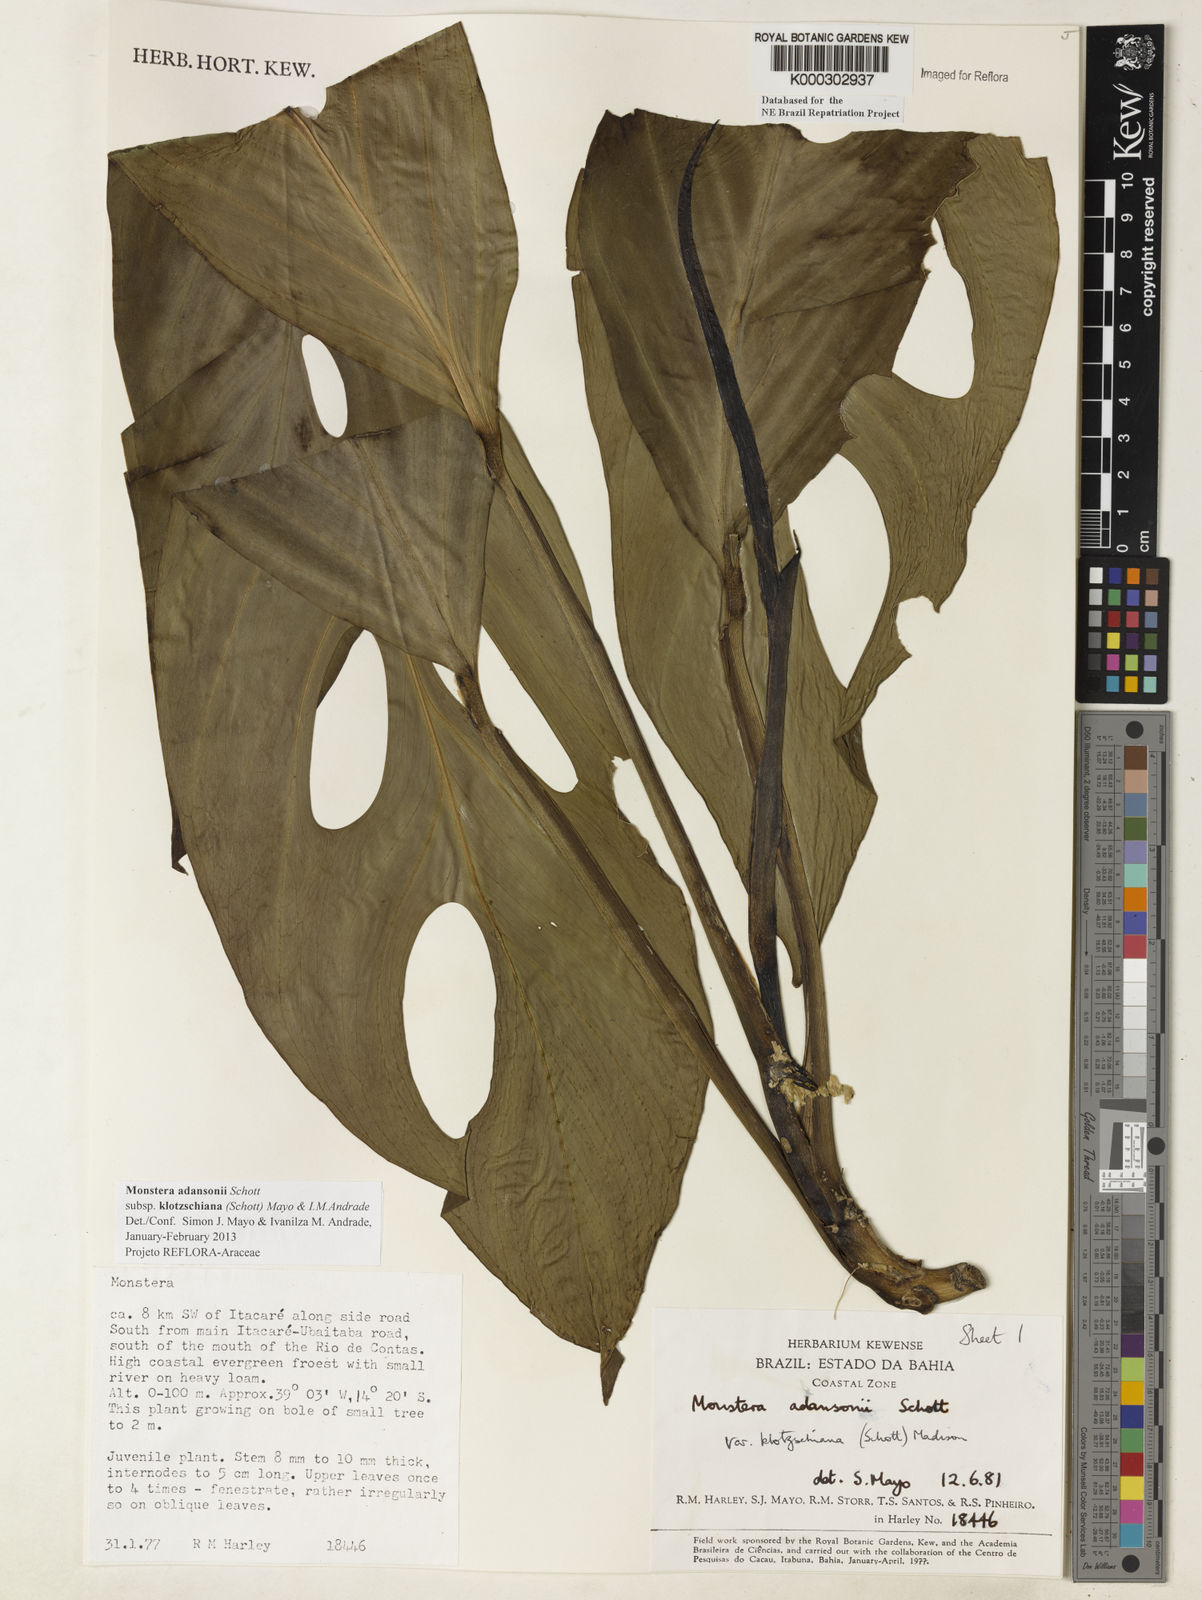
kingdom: Plantae
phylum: Tracheophyta
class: Liliopsida
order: Alismatales
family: Araceae
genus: Monstera
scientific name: Monstera adansonii
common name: Tarovine
